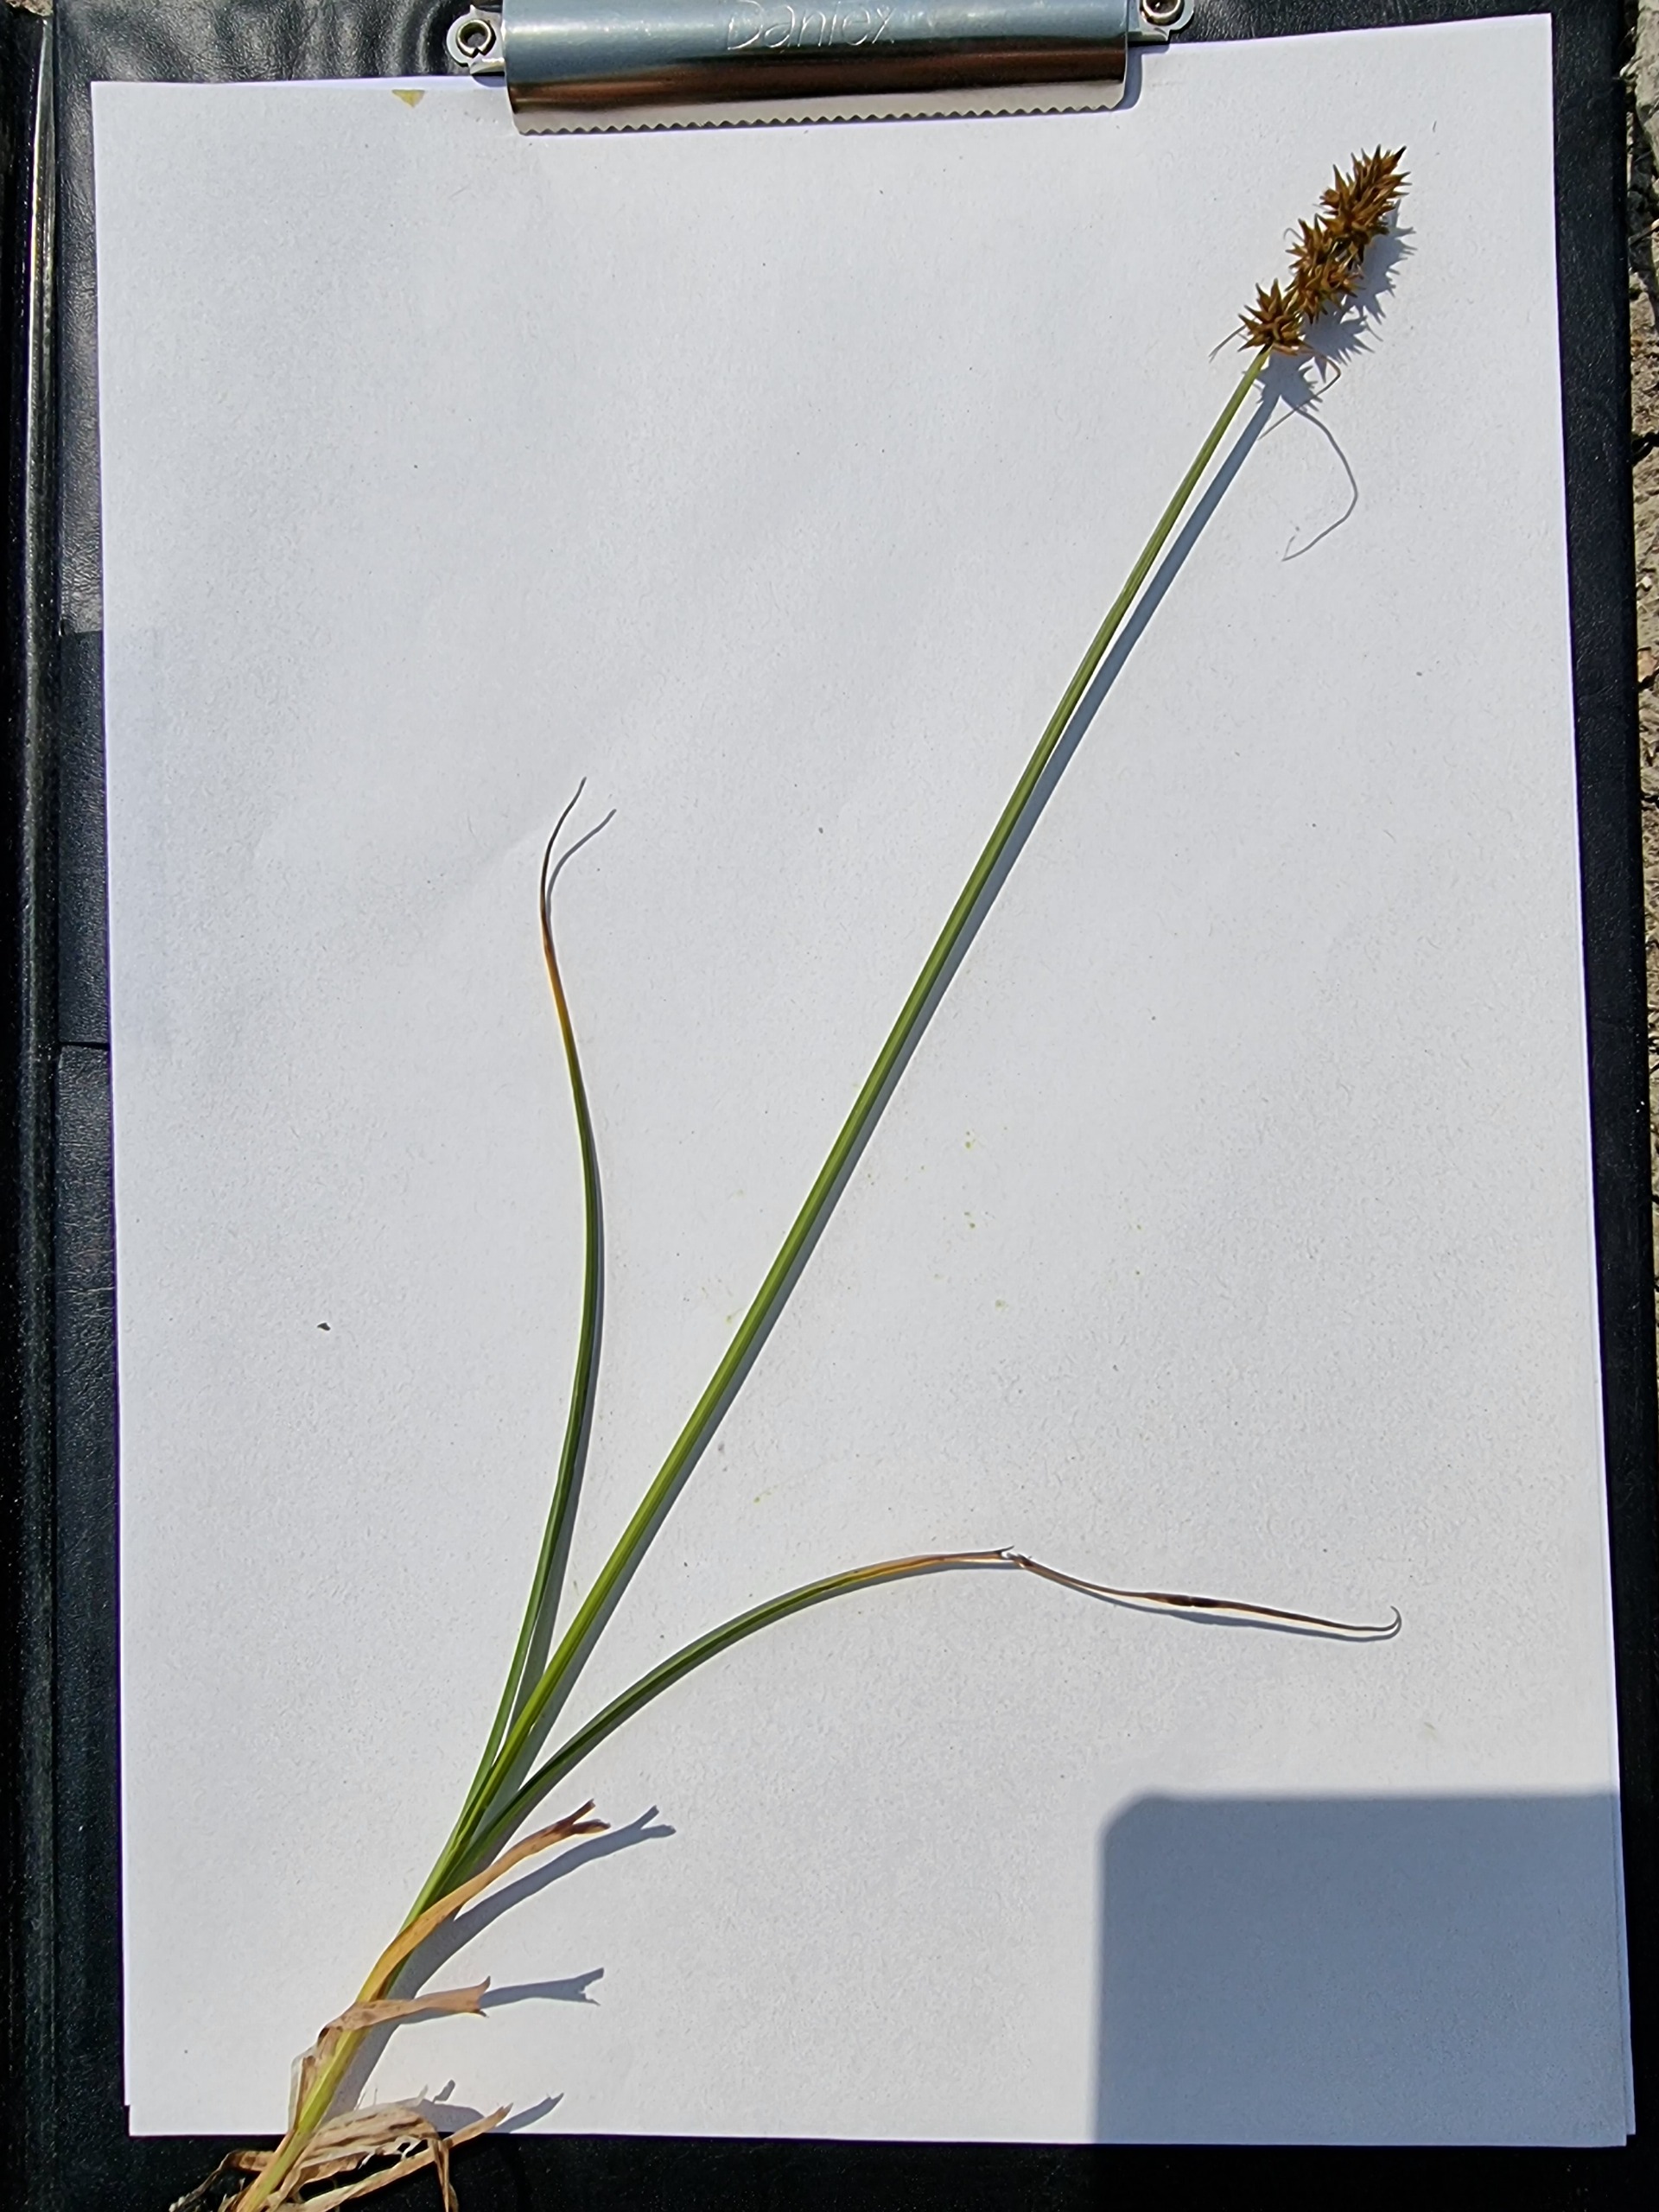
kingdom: Plantae
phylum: Tracheophyta
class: Liliopsida
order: Poales
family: Cyperaceae
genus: Carex
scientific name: Carex otrubae
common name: Sylt-star
